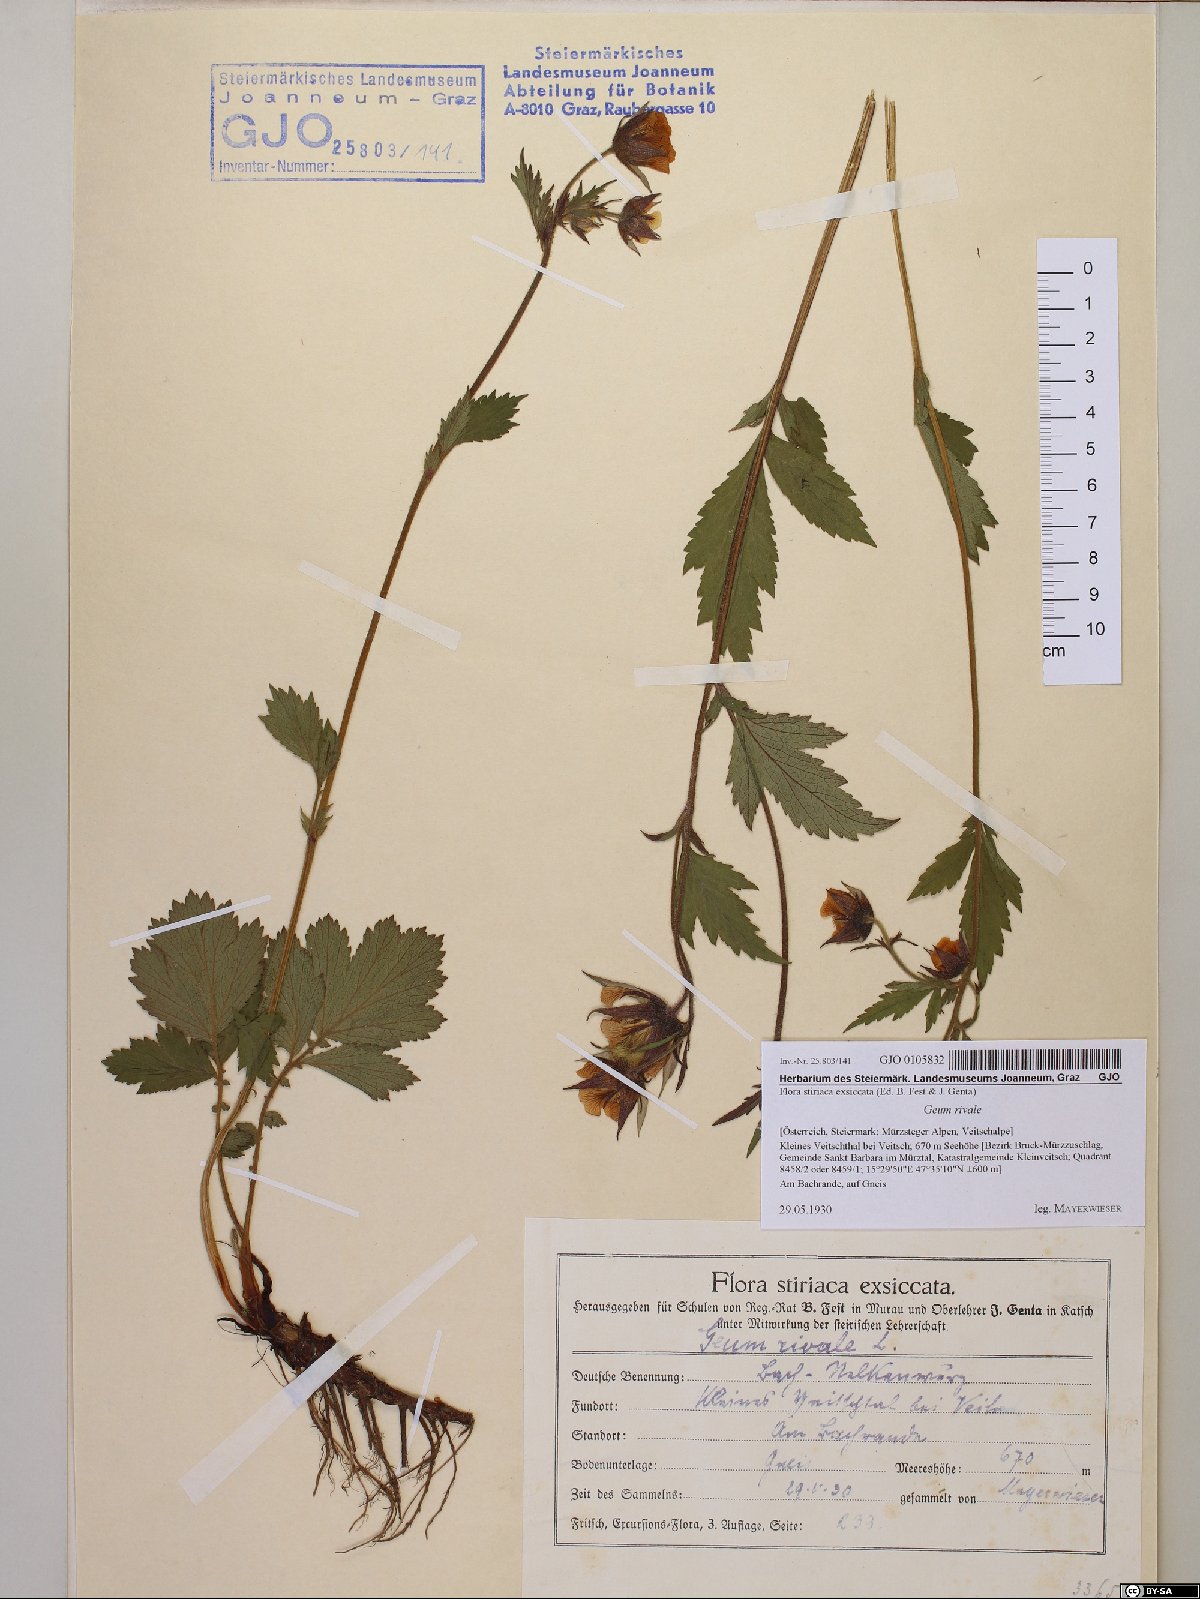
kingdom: Plantae
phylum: Tracheophyta
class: Magnoliopsida
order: Rosales
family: Rosaceae
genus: Geum
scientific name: Geum rivale
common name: Water avens
